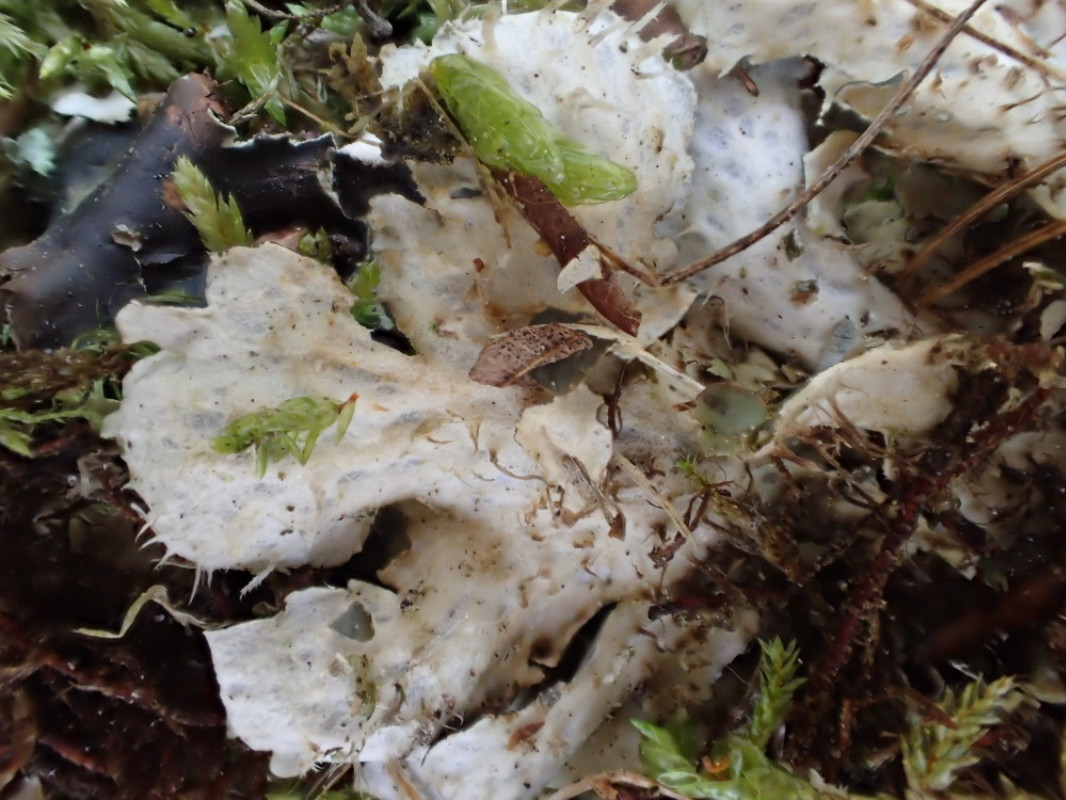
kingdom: Fungi
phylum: Ascomycota
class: Lecanoromycetes
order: Peltigerales
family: Peltigeraceae
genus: Peltigera
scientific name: Peltigera hymenina
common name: hinde-skjoldlav
